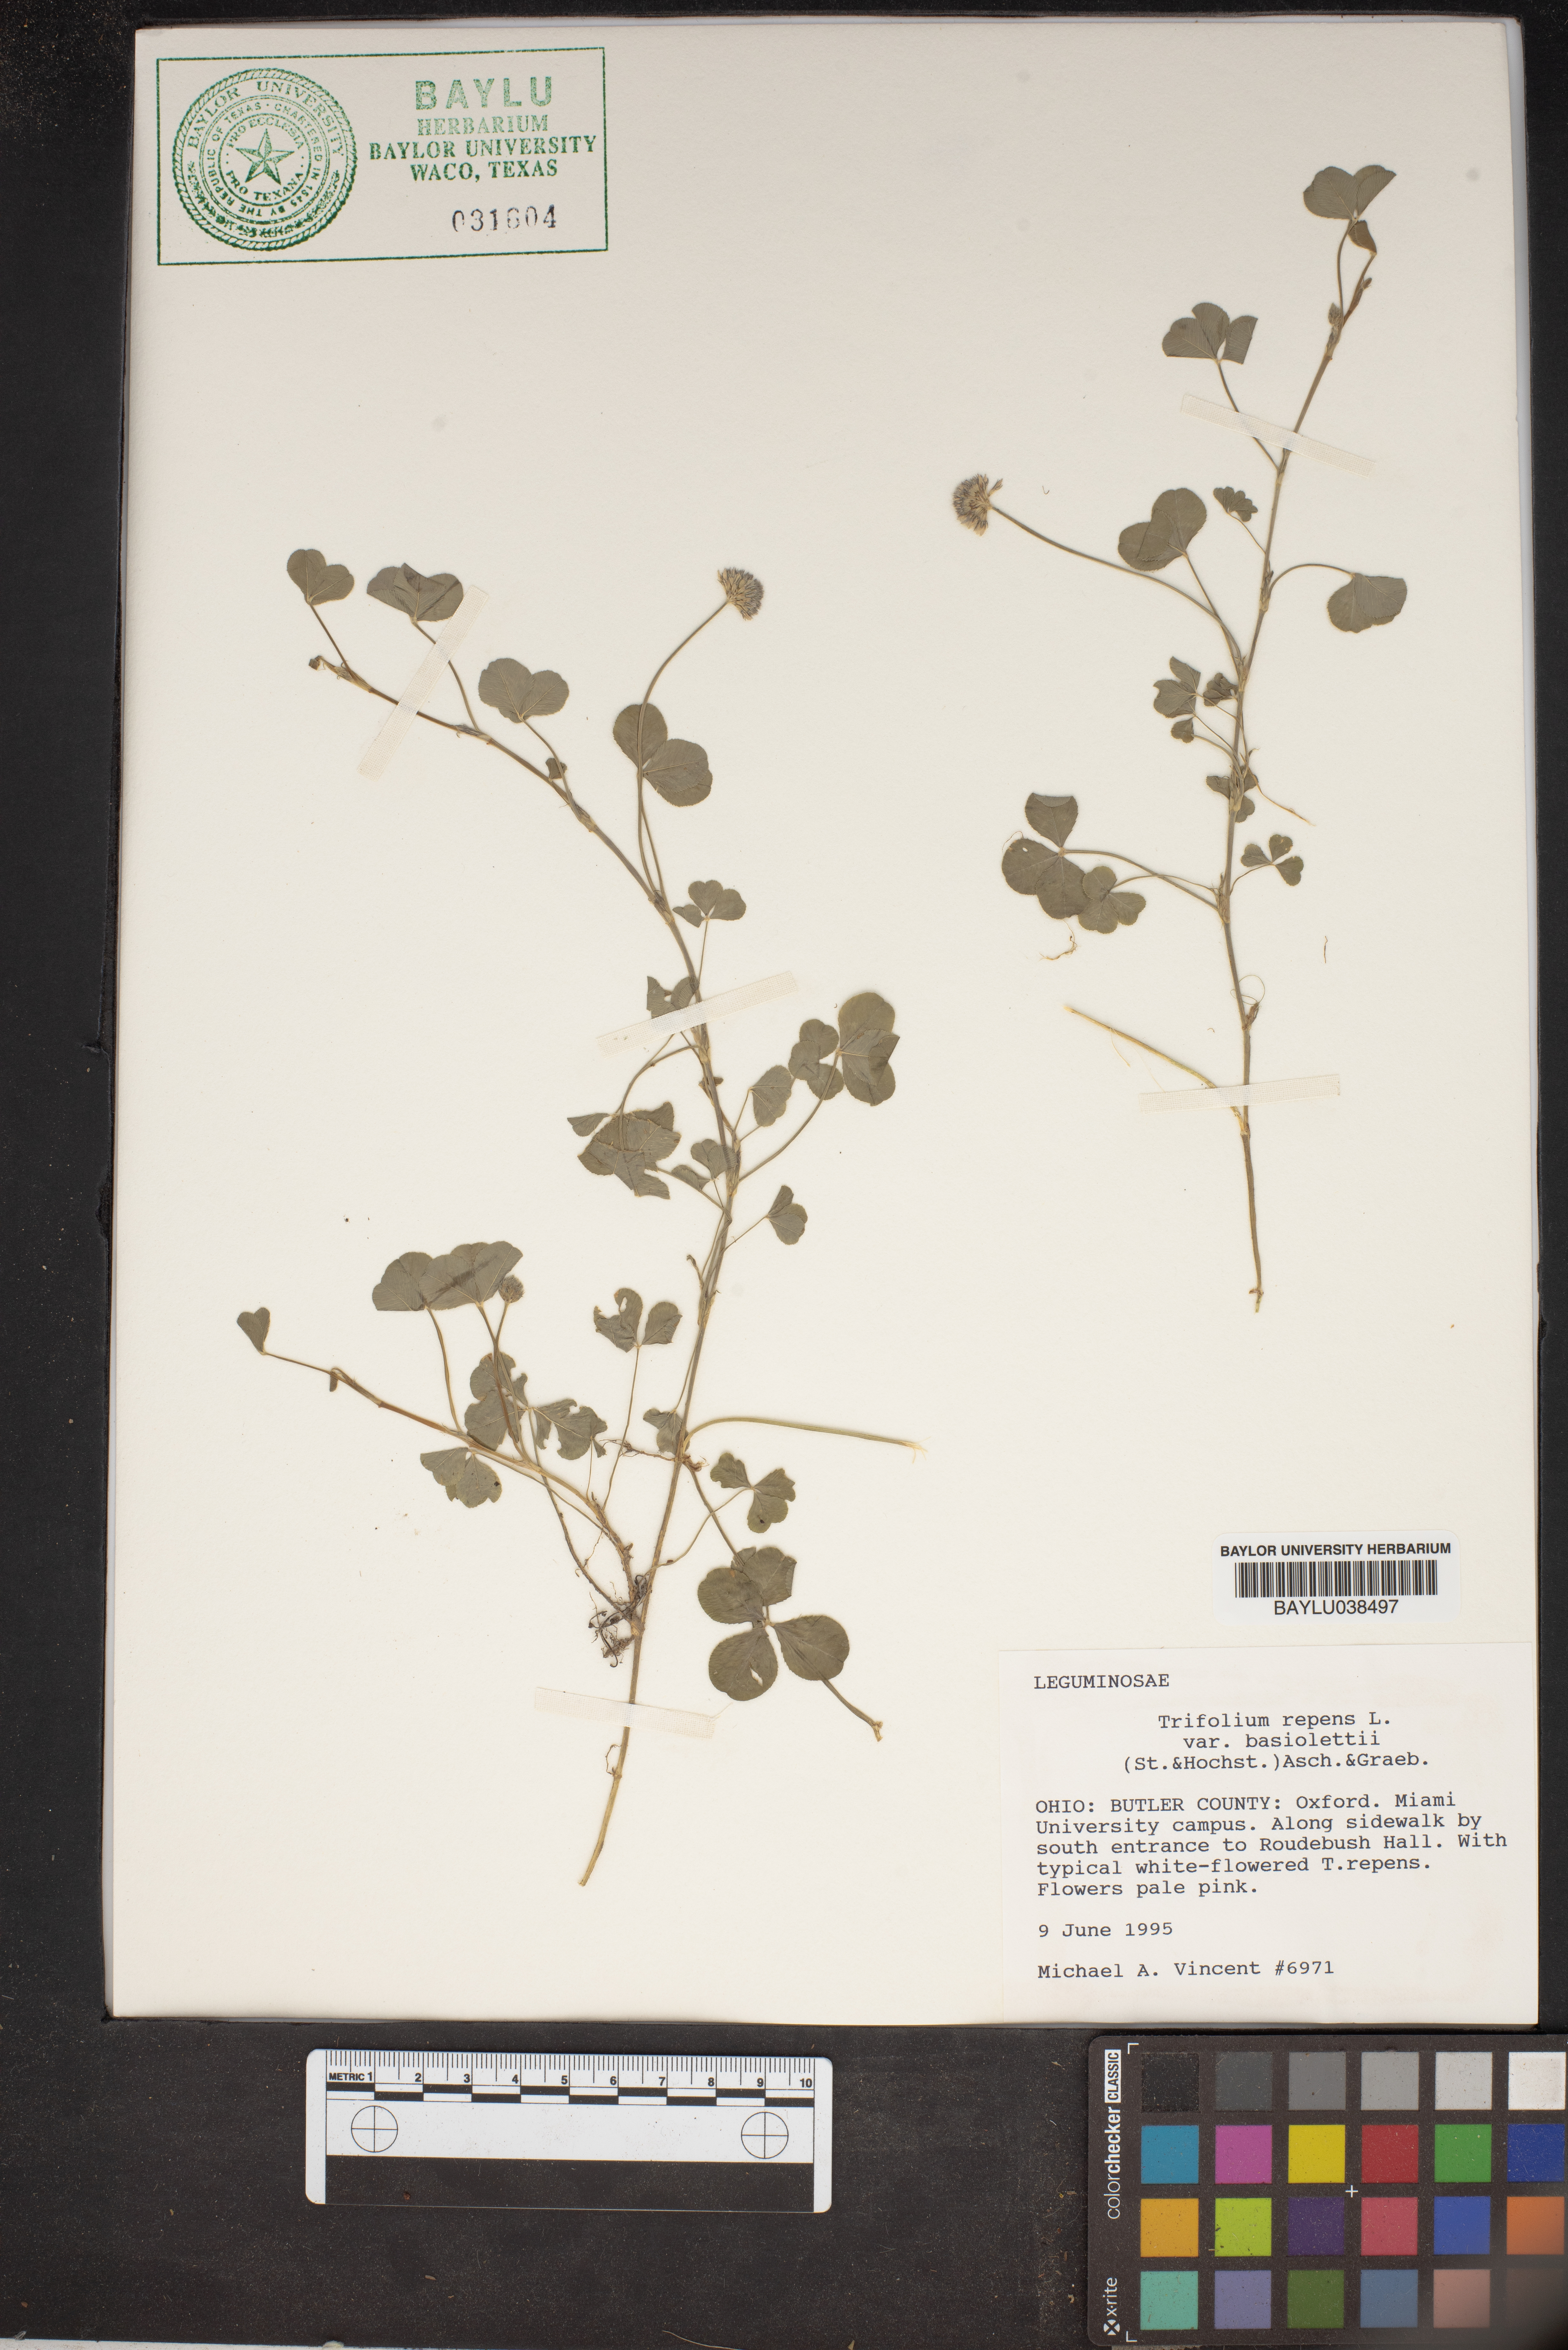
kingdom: Plantae
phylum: Tracheophyta
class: Magnoliopsida
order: Fabales
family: Fabaceae
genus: Trifolium
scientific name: Trifolium repens
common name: White clover
